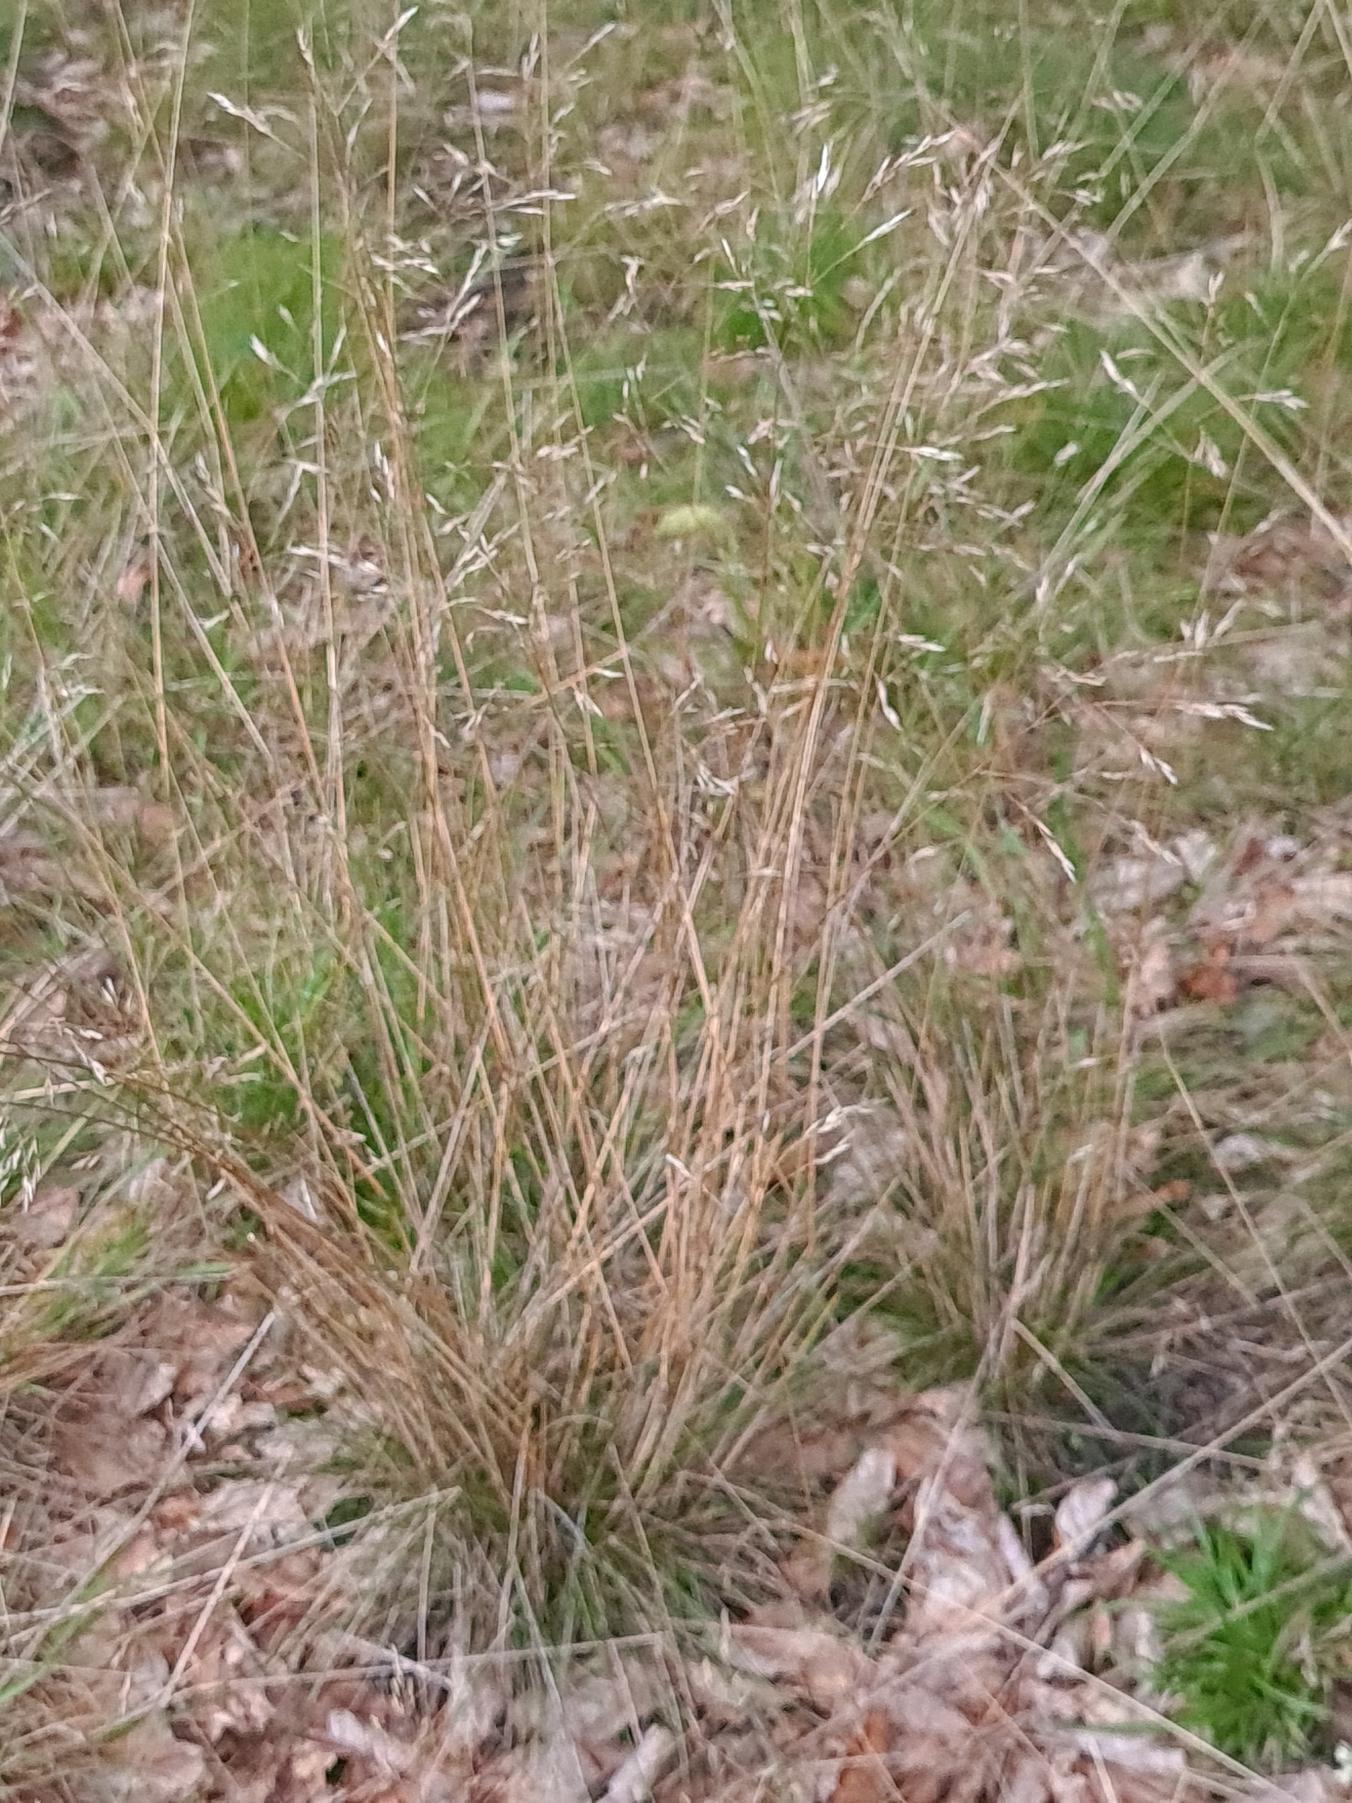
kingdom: Plantae
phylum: Tracheophyta
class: Liliopsida
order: Poales
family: Poaceae
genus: Avenella
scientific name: Avenella flexuosa
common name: Bølget bunke
